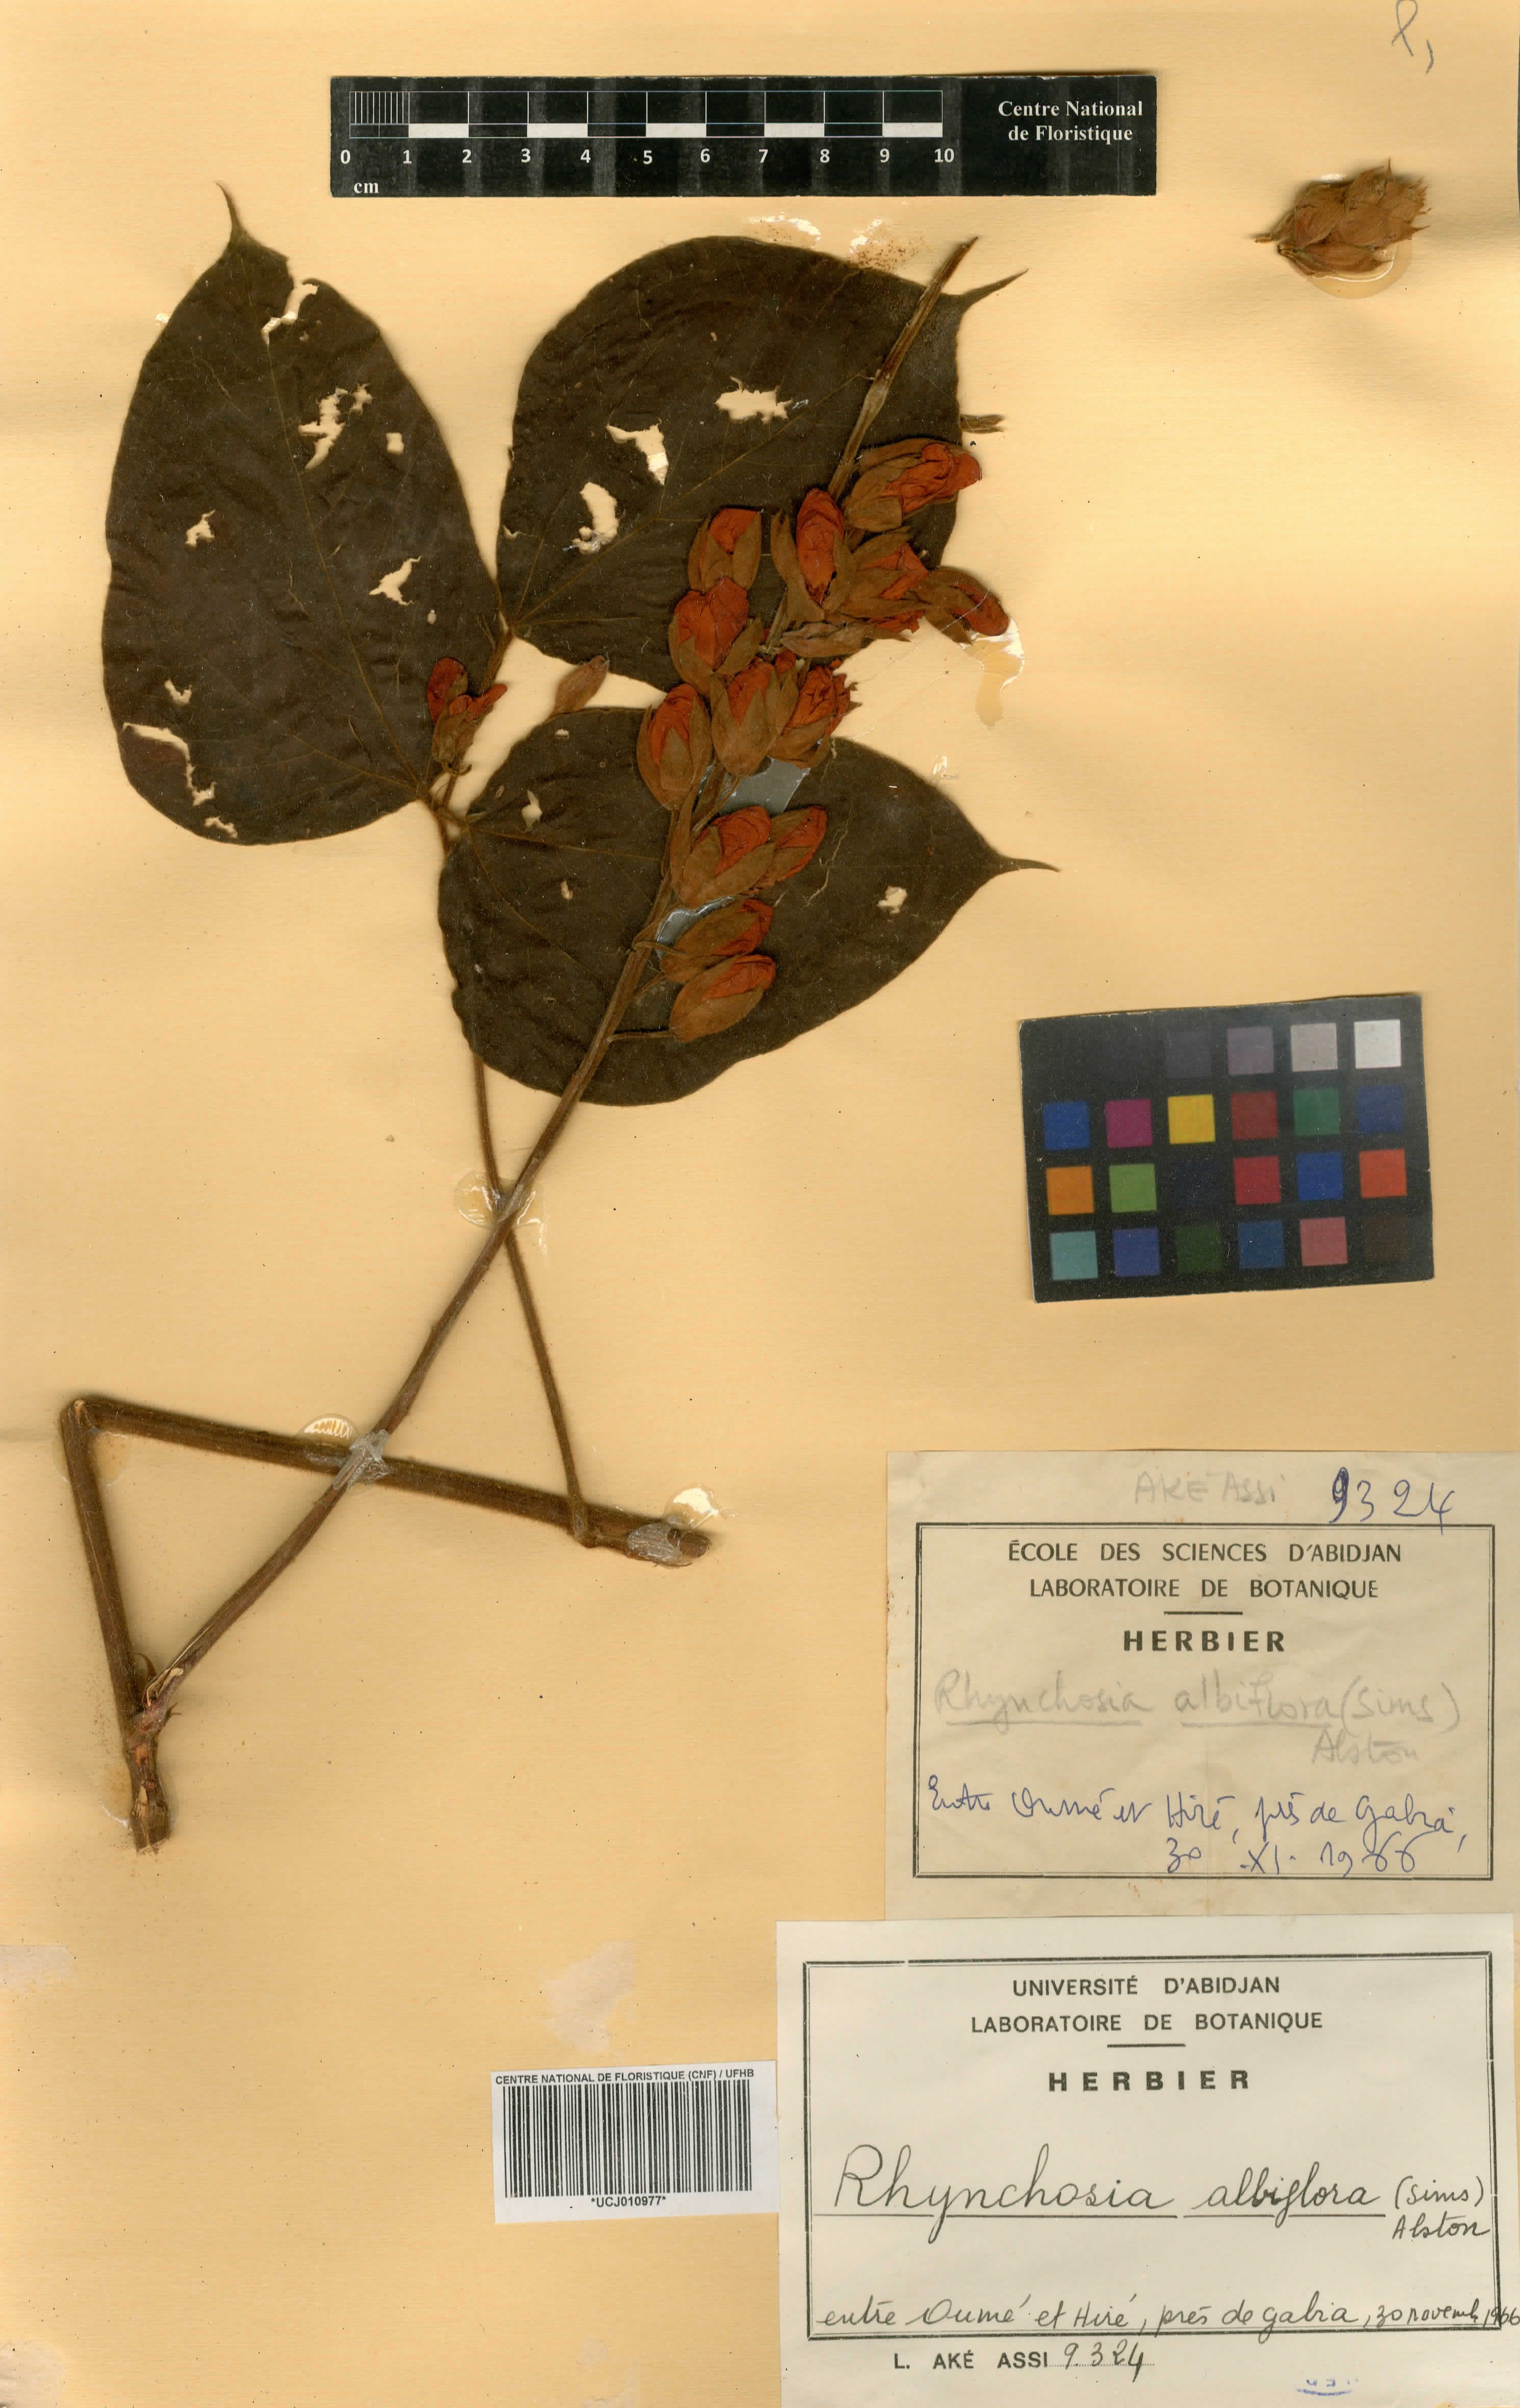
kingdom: Plantae
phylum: Tracheophyta
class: Magnoliopsida
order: Fabales
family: Fabaceae
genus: Rhynchosia
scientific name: Rhynchosia buettneri
